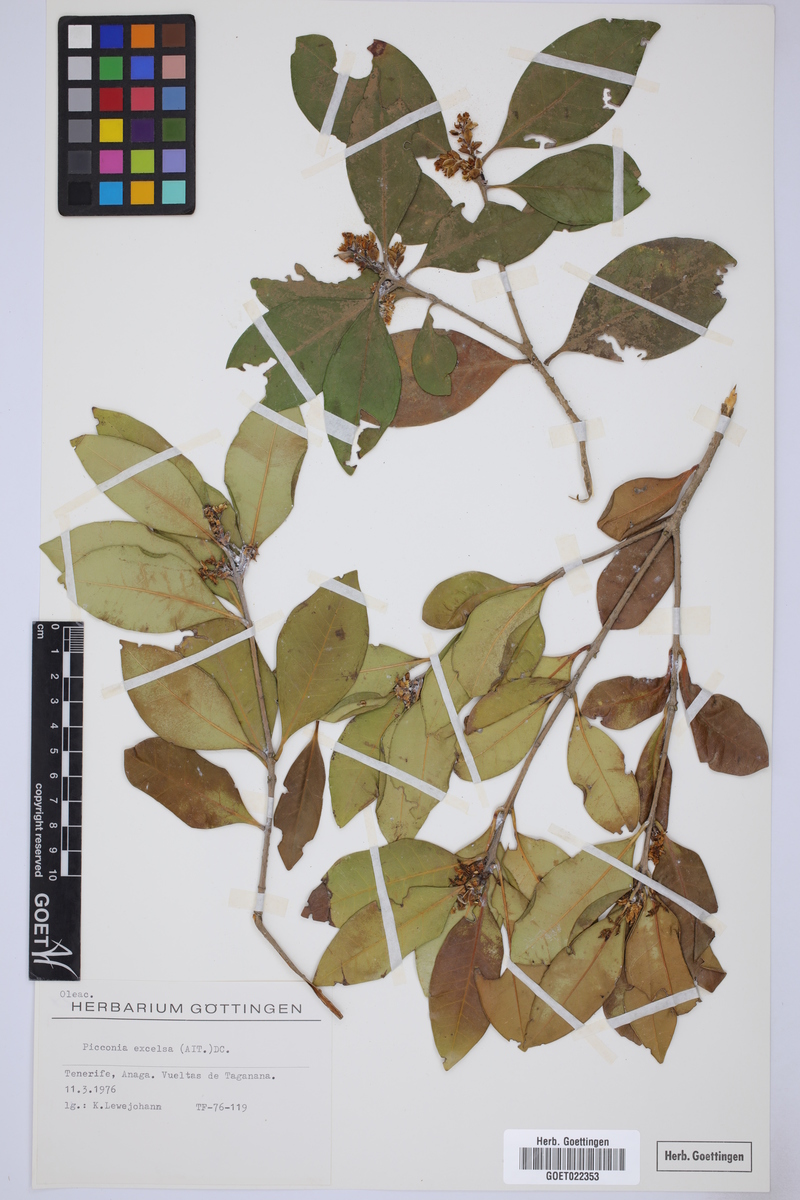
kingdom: Plantae
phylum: Tracheophyta
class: Magnoliopsida
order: Lamiales
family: Oleaceae
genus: Picconia
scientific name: Picconia excelsa
